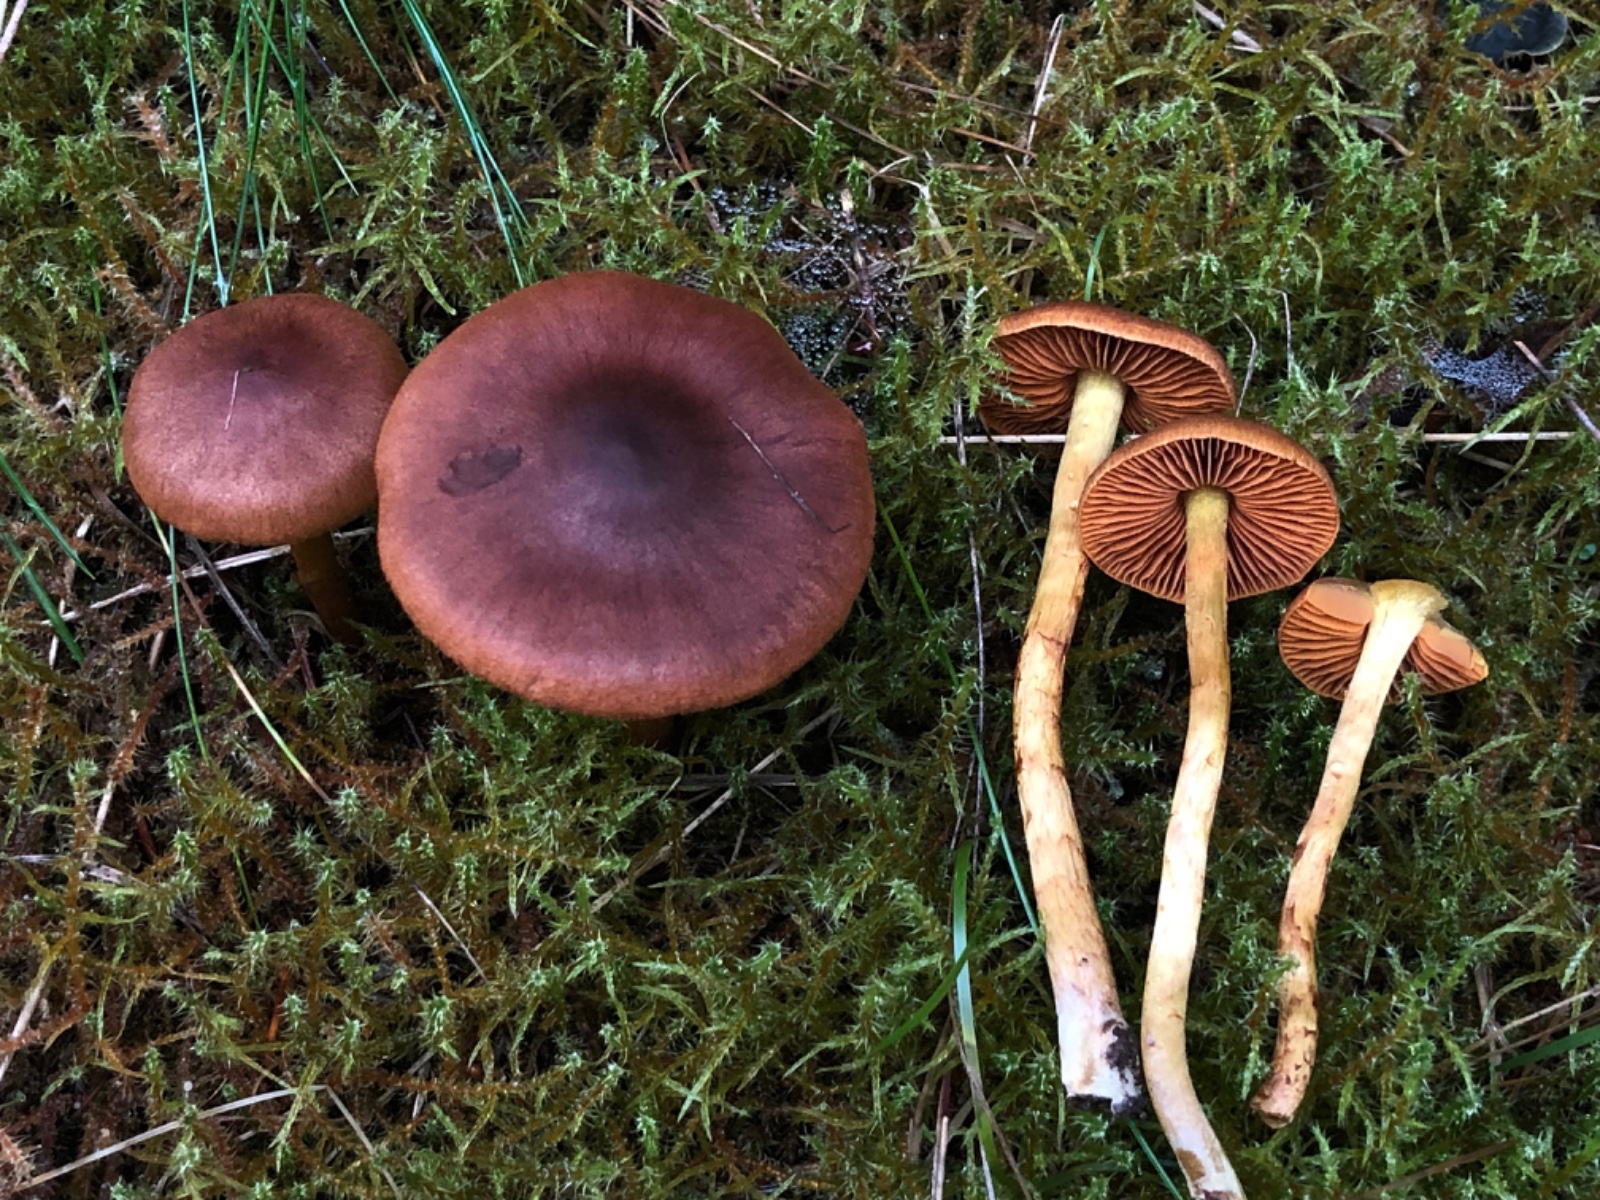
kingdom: Fungi
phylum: Basidiomycota
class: Agaricomycetes
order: Agaricales
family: Cortinariaceae
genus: Cortinarius
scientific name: Cortinarius
